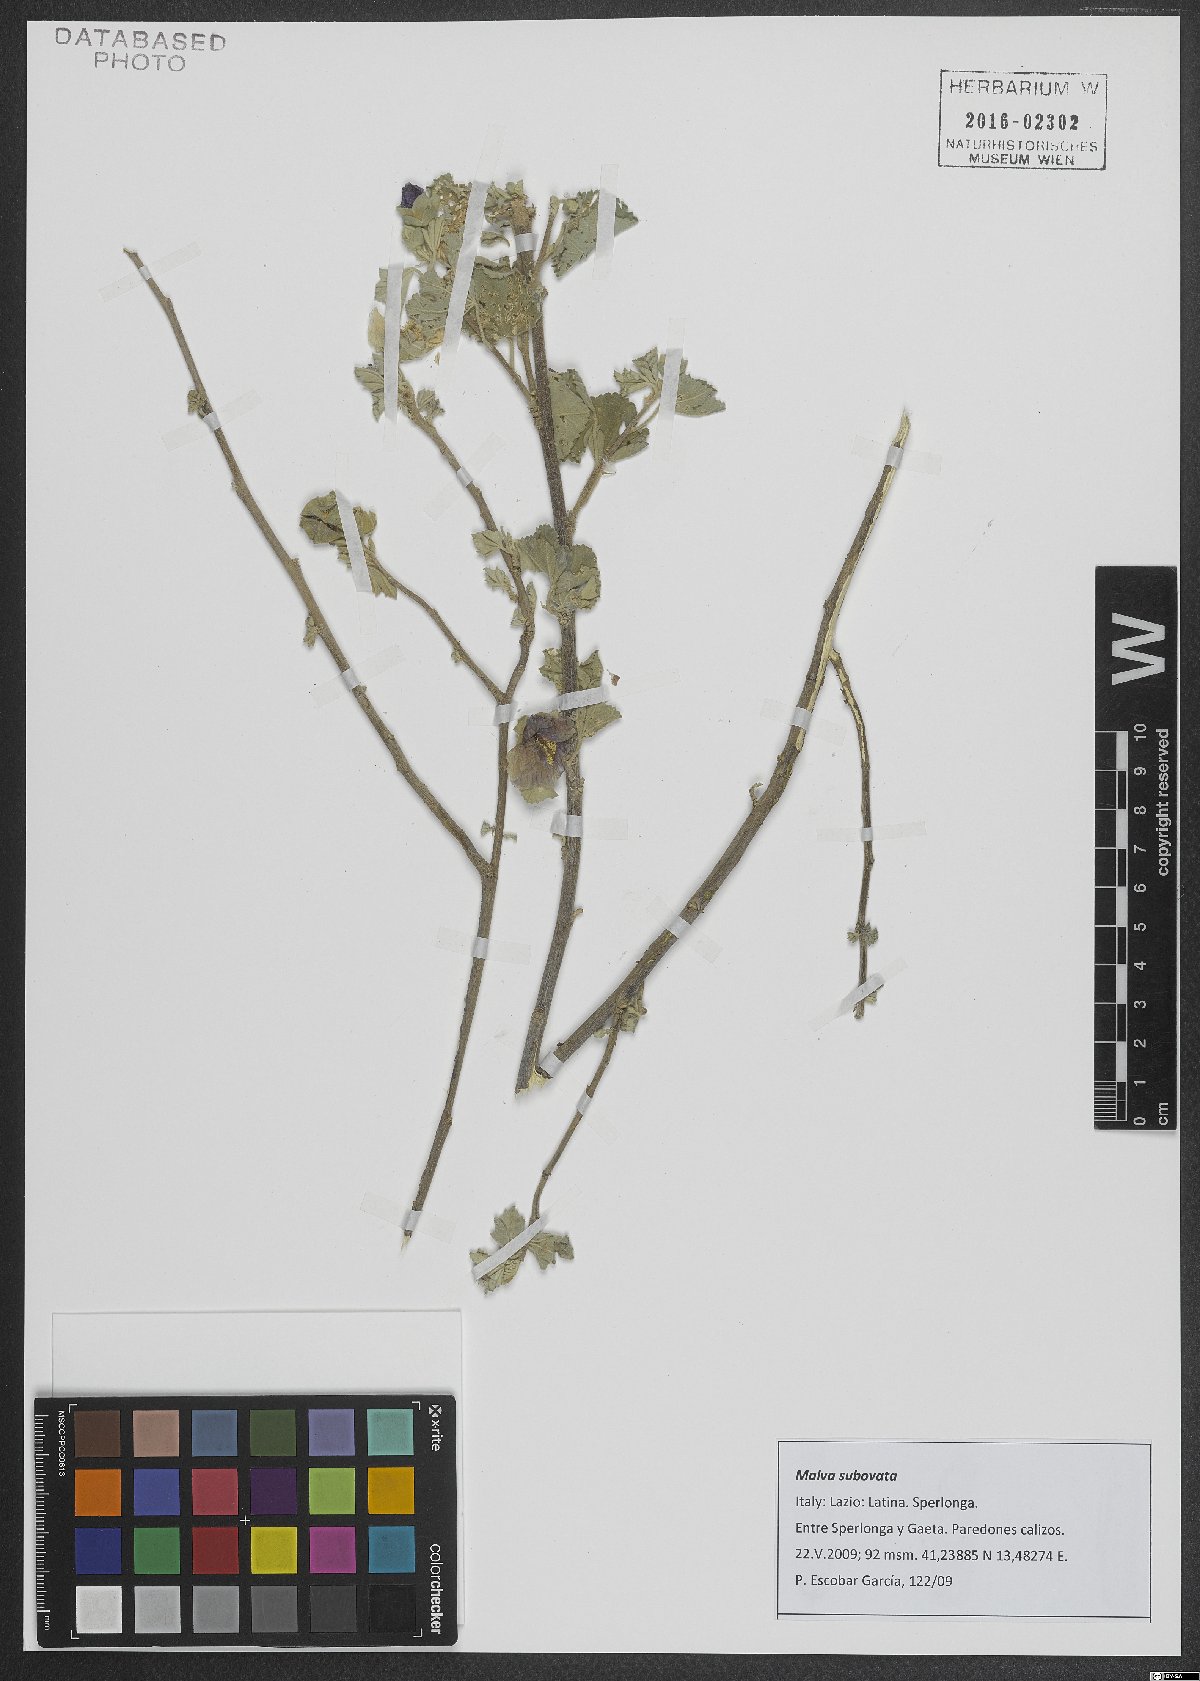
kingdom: Plantae
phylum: Tracheophyta
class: Magnoliopsida
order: Malvales
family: Malvaceae
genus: Malva
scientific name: Malva subovata
